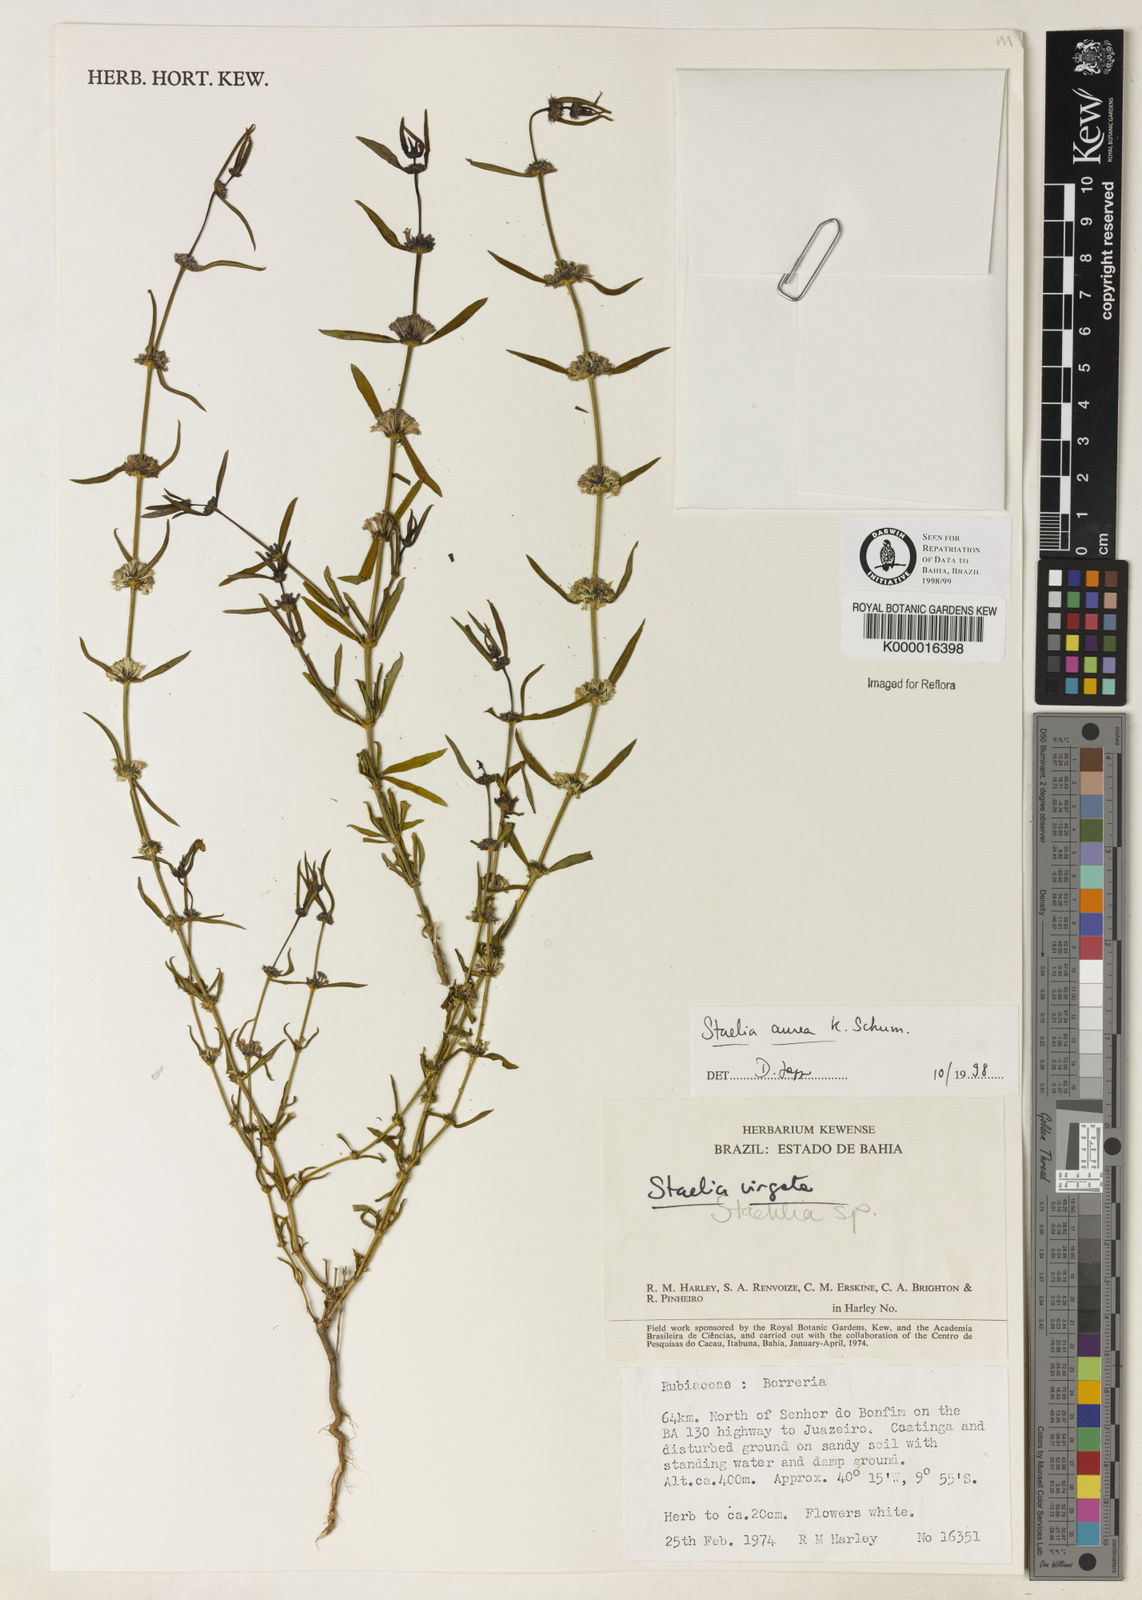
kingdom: Plantae
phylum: Tracheophyta
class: Magnoliopsida
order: Gentianales
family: Rubiaceae
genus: Staelia
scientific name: Staelia aurea
